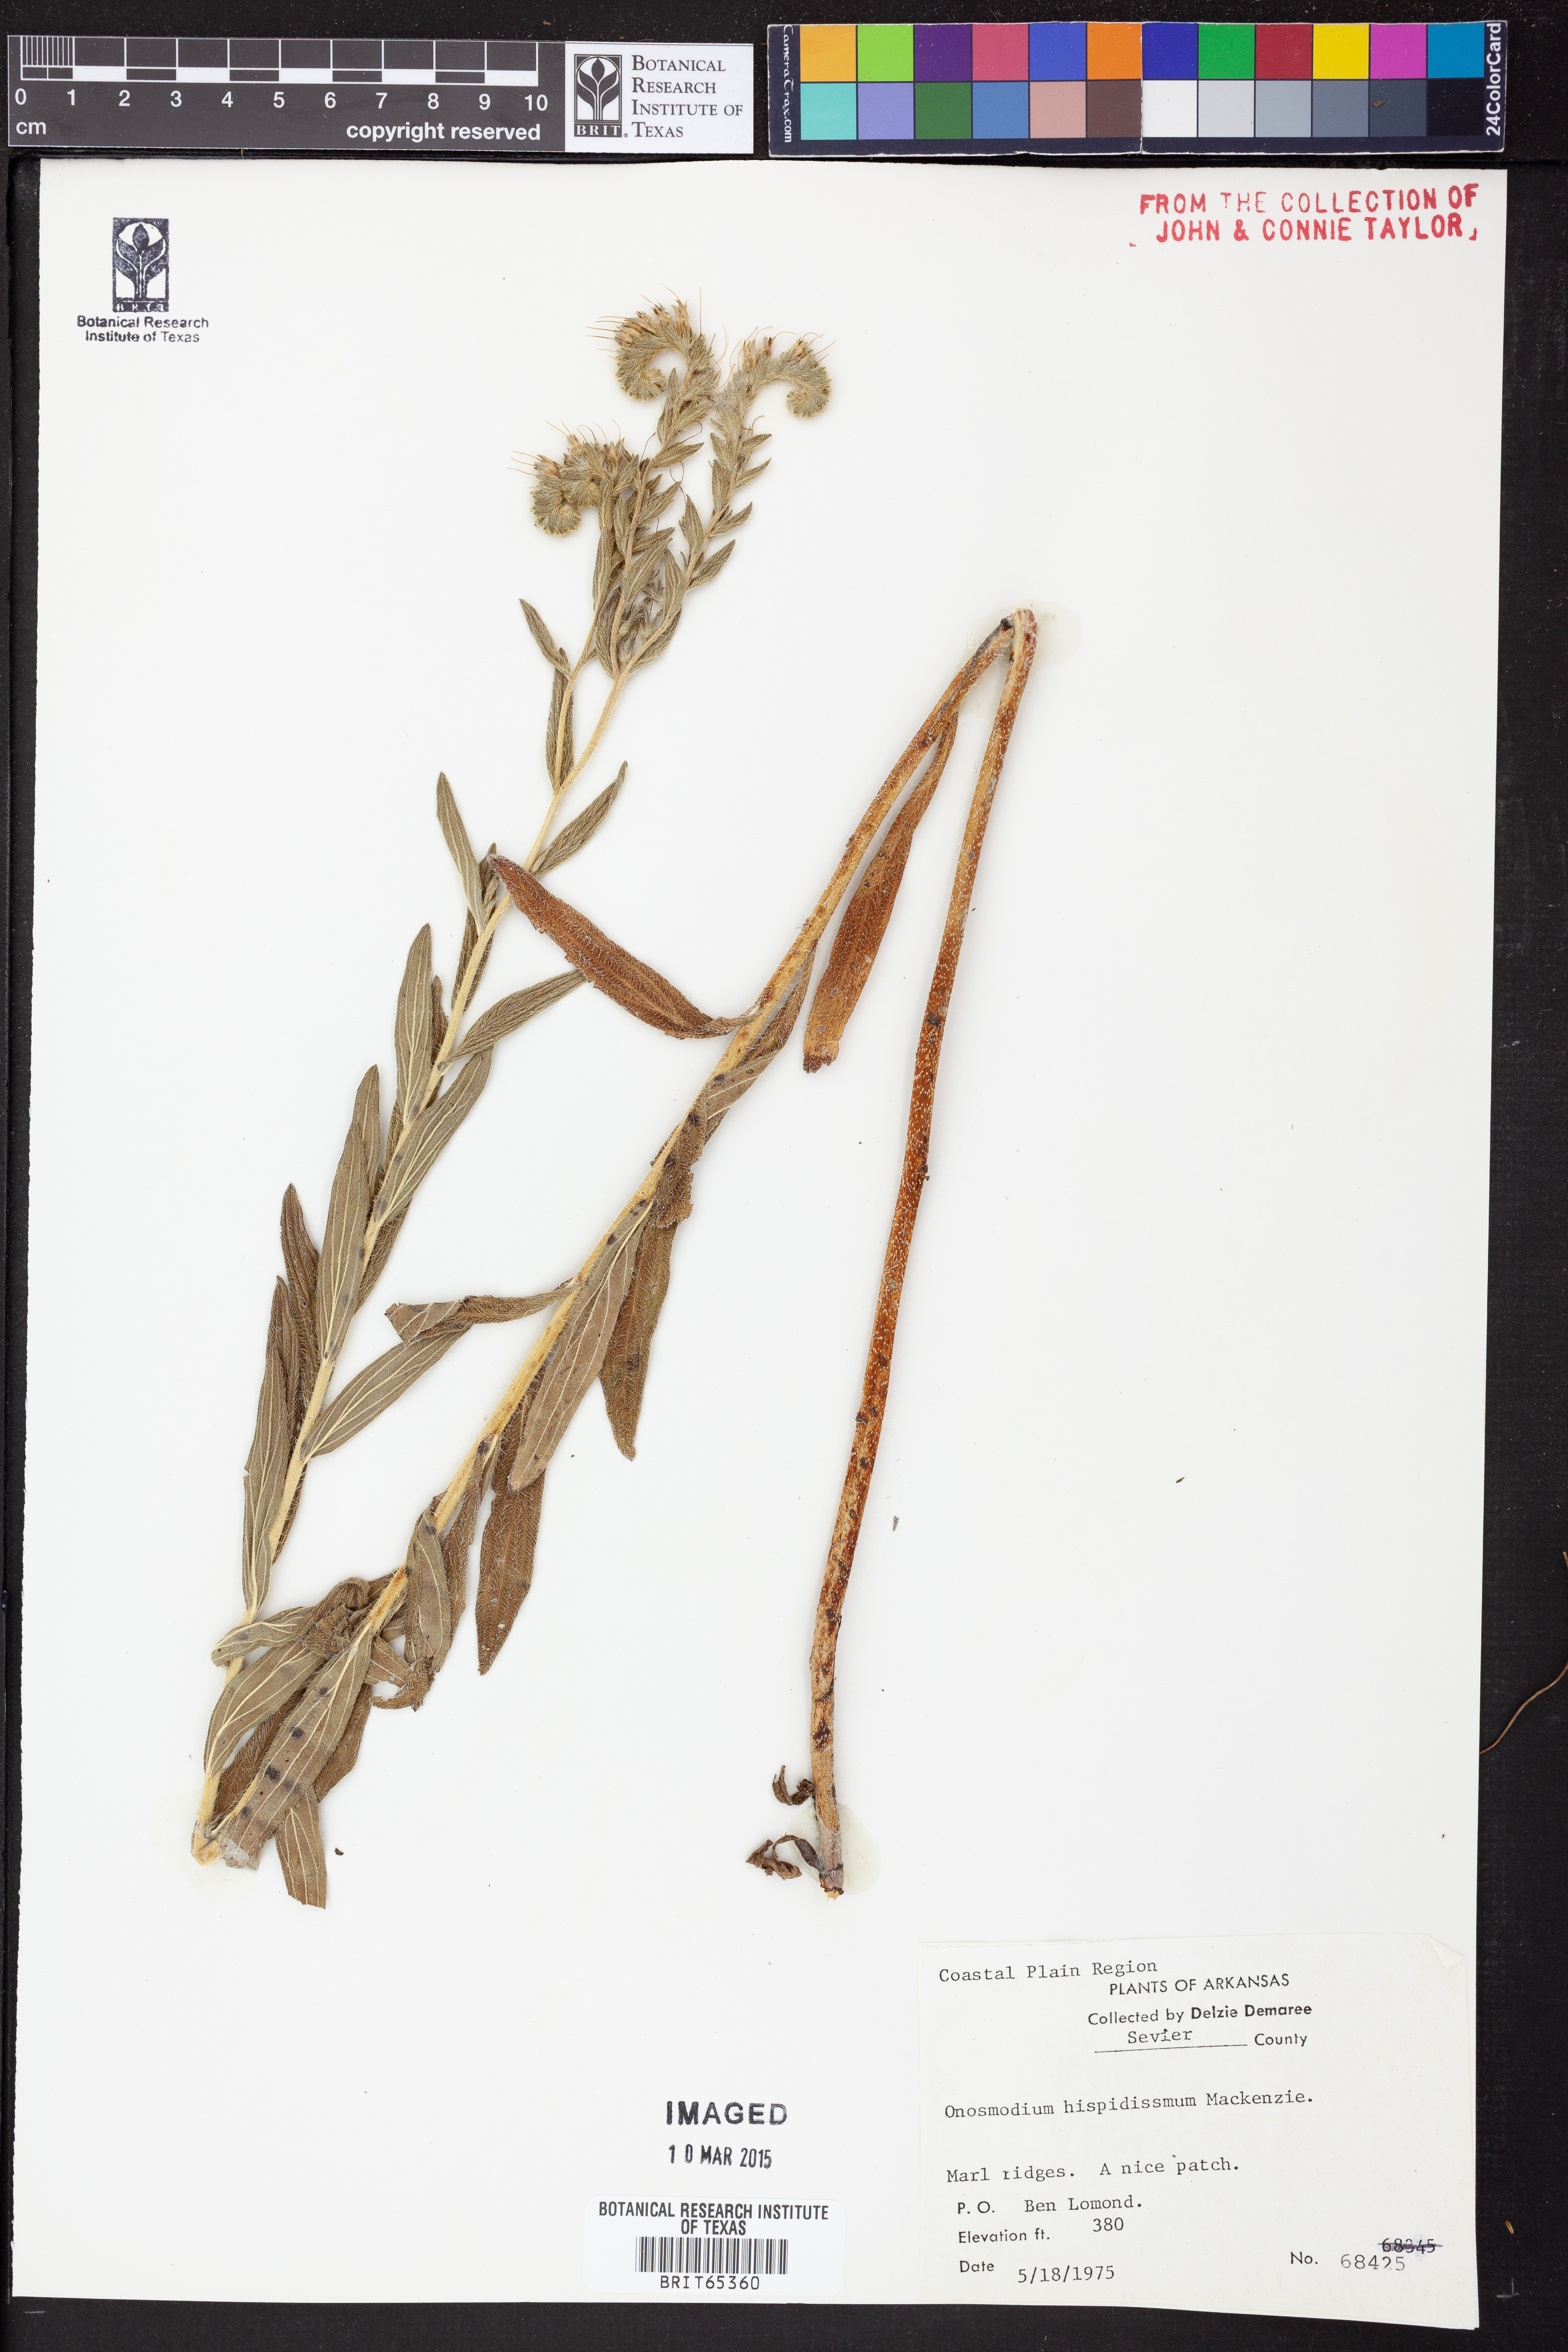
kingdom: Plantae
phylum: Tracheophyta
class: Magnoliopsida
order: Boraginales
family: Boraginaceae
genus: Lithospermum
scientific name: Lithospermum parviflorum
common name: Hairy false gromwell
